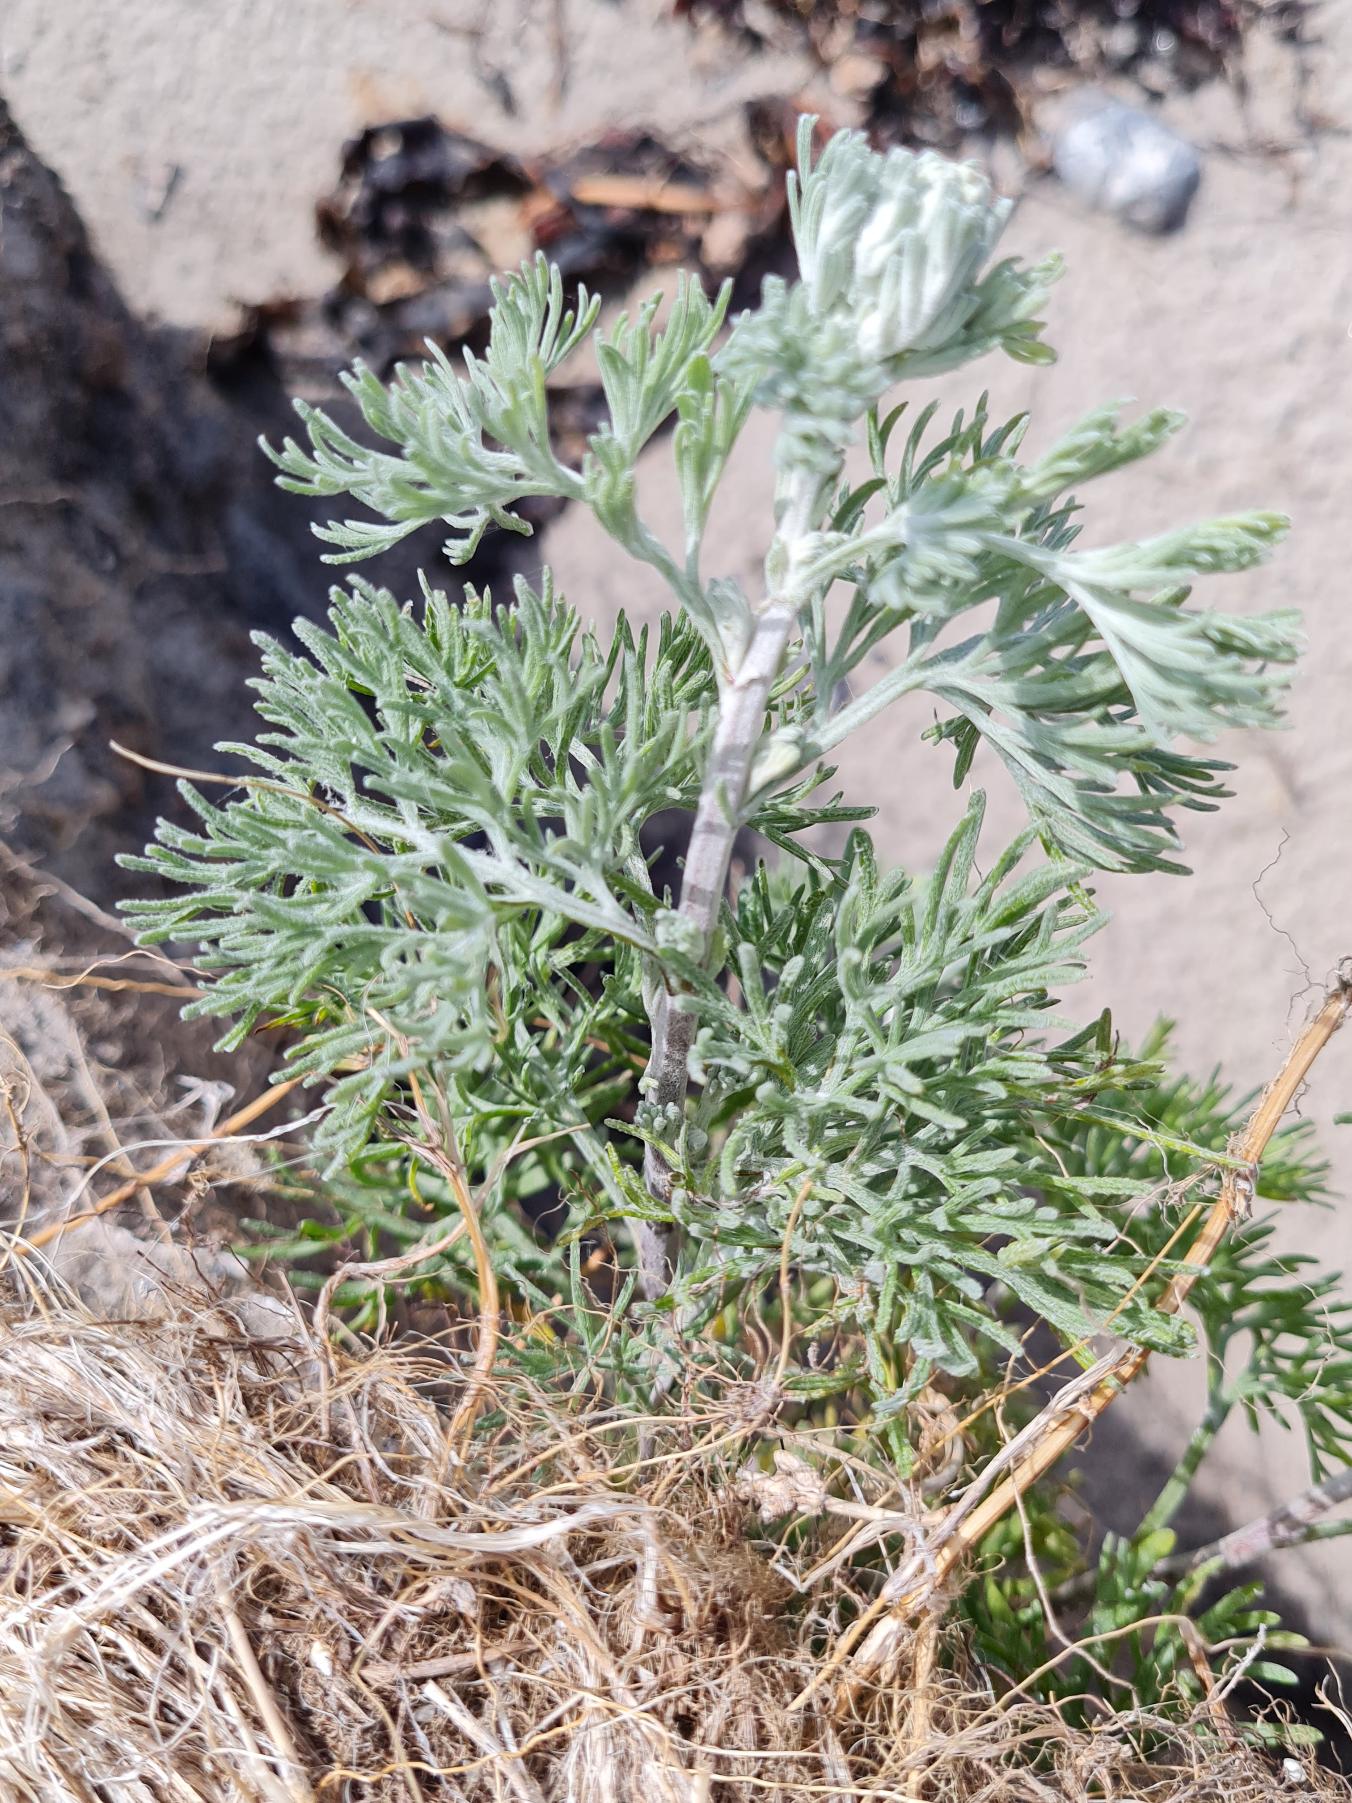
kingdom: Plantae
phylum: Tracheophyta
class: Magnoliopsida
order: Asterales
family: Asteraceae
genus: Artemisia
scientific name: Artemisia maritima
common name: Strandmalurt
